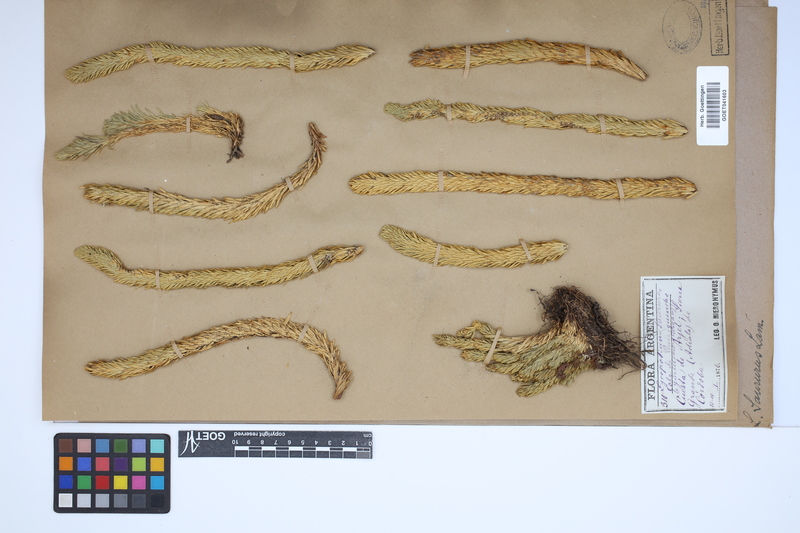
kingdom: Plantae
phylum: Tracheophyta
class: Lycopodiopsida
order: Lycopodiales
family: Lycopodiaceae
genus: Phlegmariurus
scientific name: Phlegmariurus saururus
